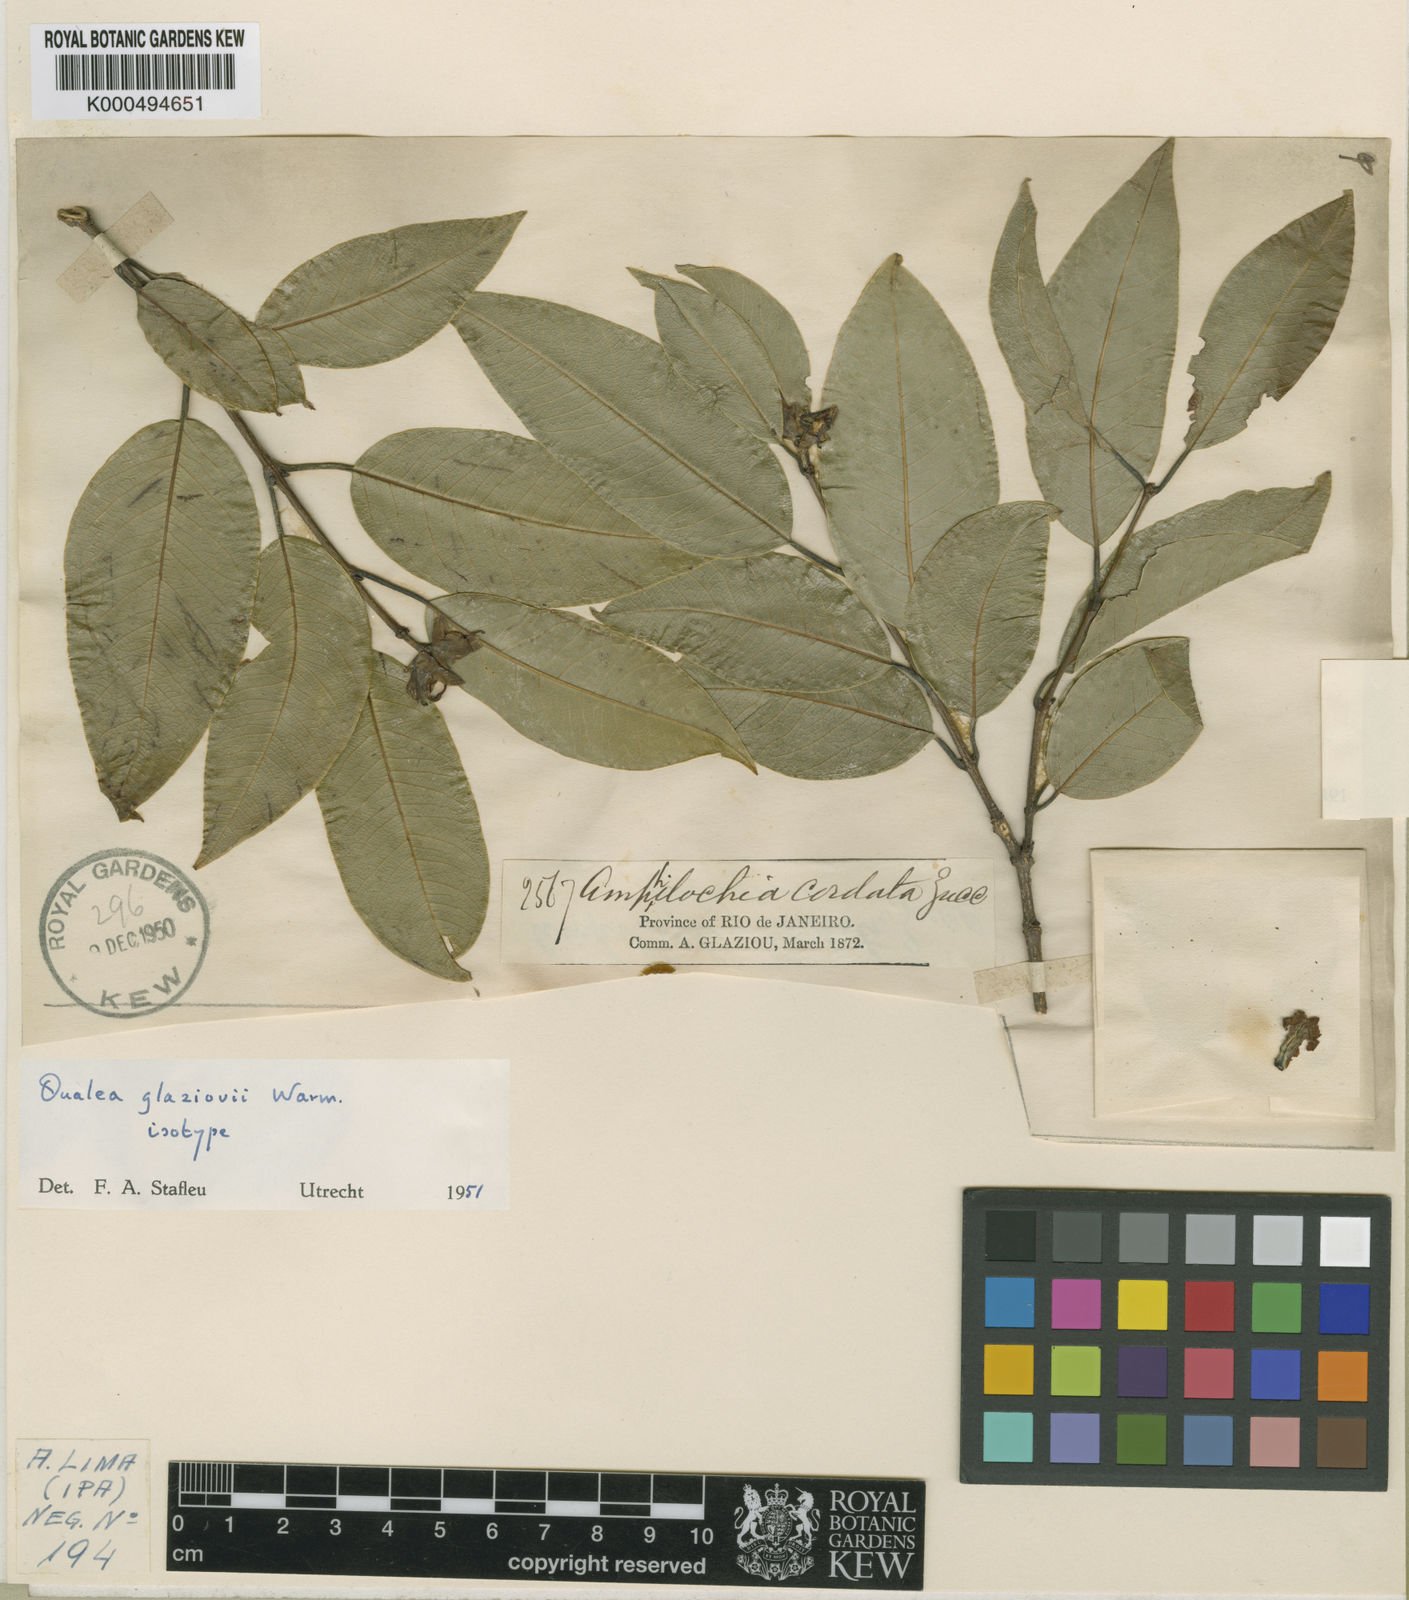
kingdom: Plantae
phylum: Tracheophyta
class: Magnoliopsida
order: Myrtales
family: Vochysiaceae
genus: Qualea
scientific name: Qualea glaziovii
